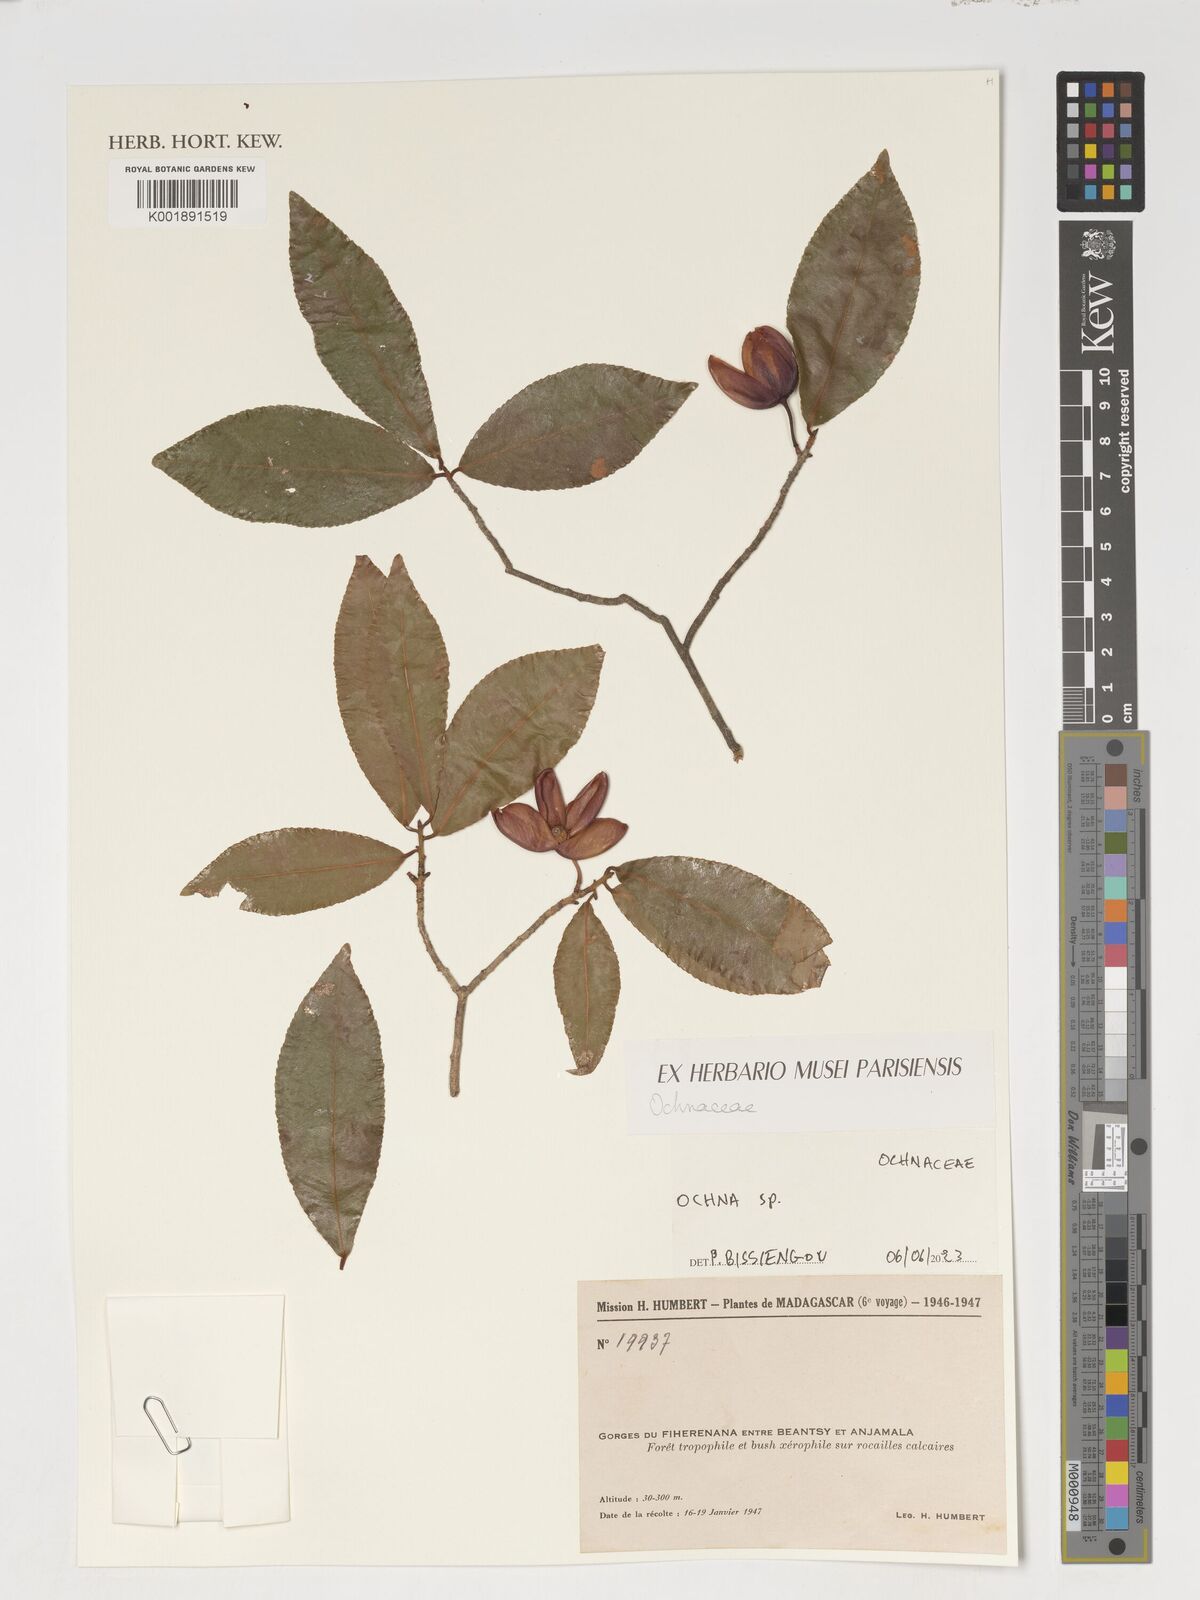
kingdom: Plantae
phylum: Tracheophyta
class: Magnoliopsida
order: Malpighiales
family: Ochnaceae
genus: Ochna
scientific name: Ochna
